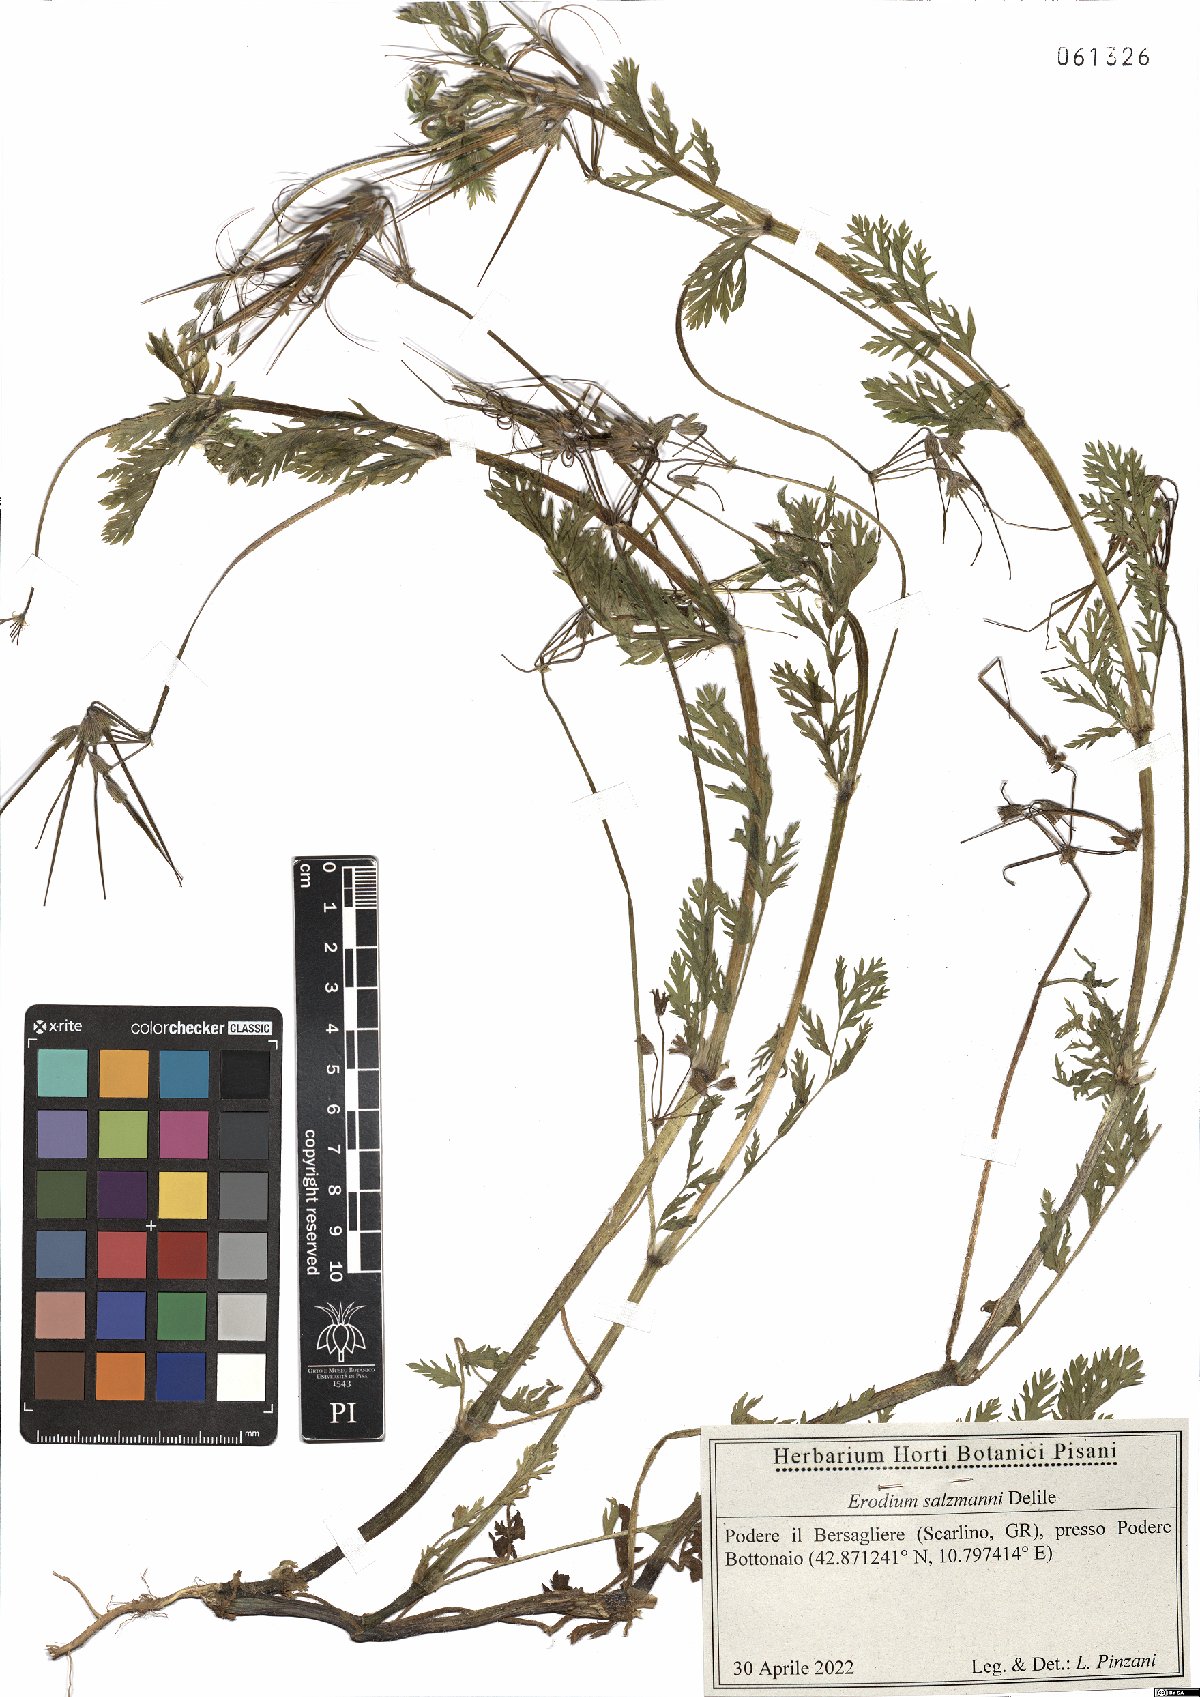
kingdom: Plantae
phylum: Tracheophyta
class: Magnoliopsida
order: Geraniales
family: Geraniaceae
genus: Erodium
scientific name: Erodium salzmannii
